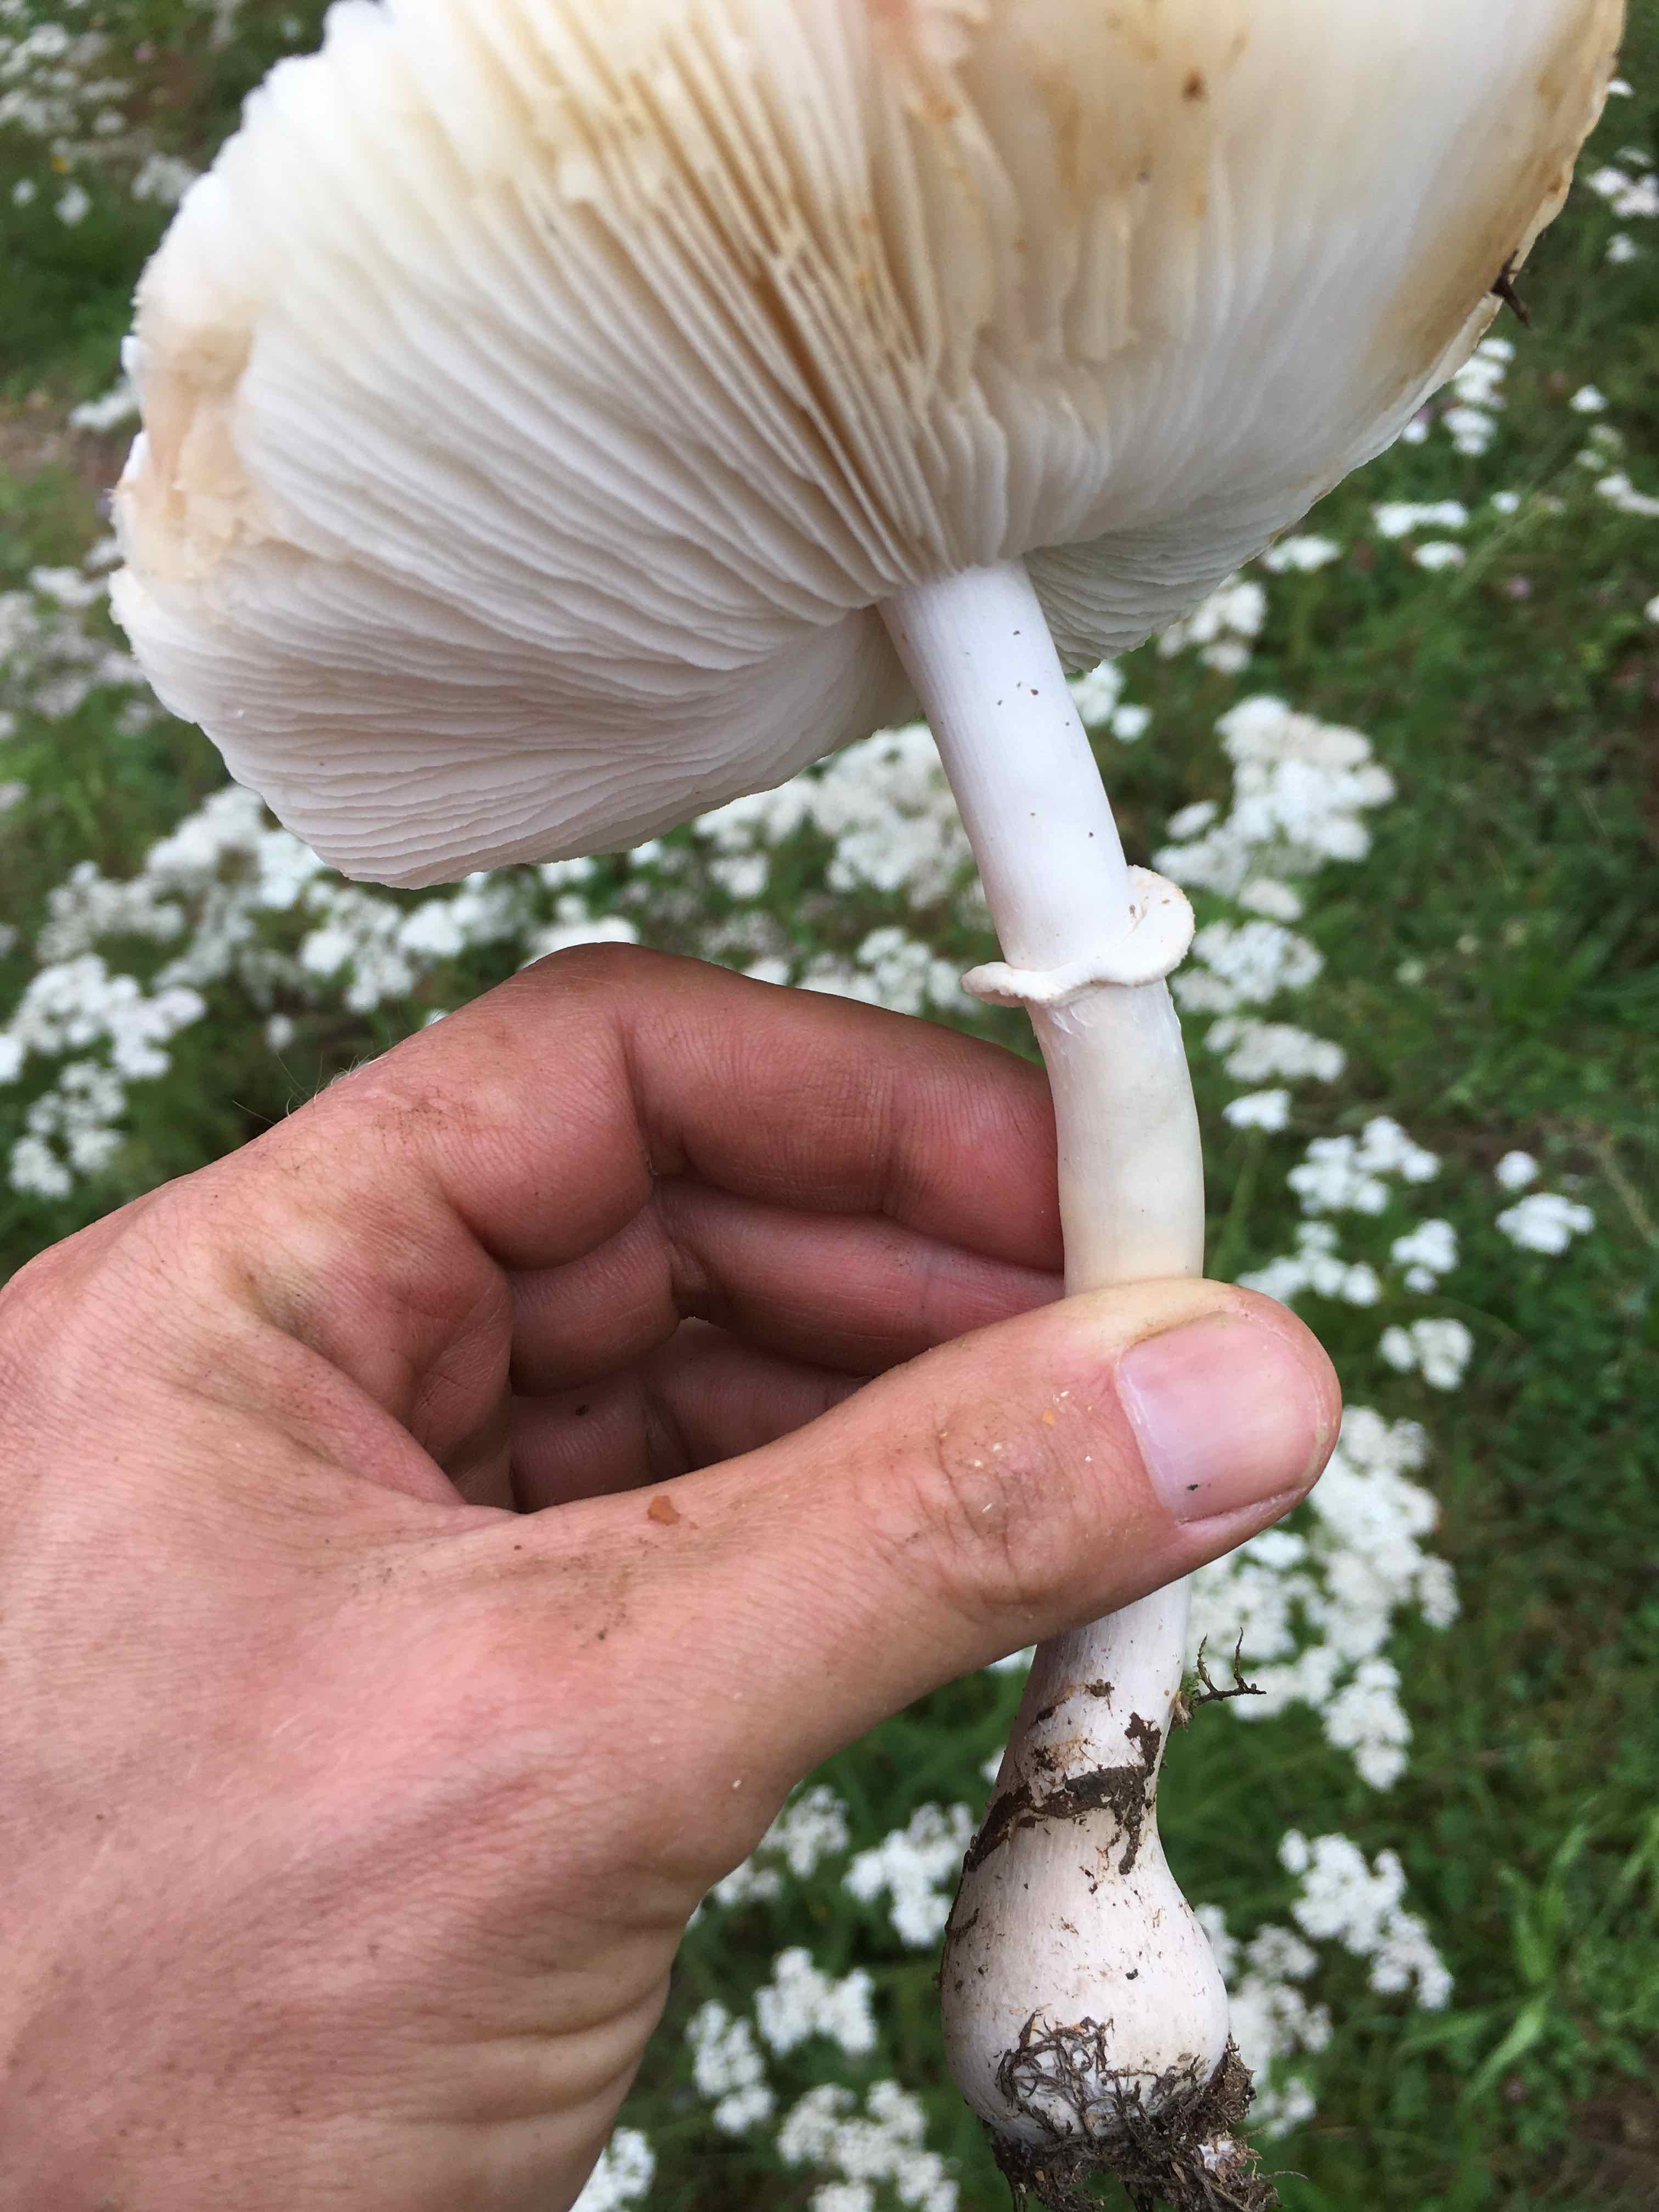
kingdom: Fungi
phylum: Basidiomycota
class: Agaricomycetes
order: Agaricales
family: Agaricaceae
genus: Leucoagaricus
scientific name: Leucoagaricus leucothites
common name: rosabladet silkehat
